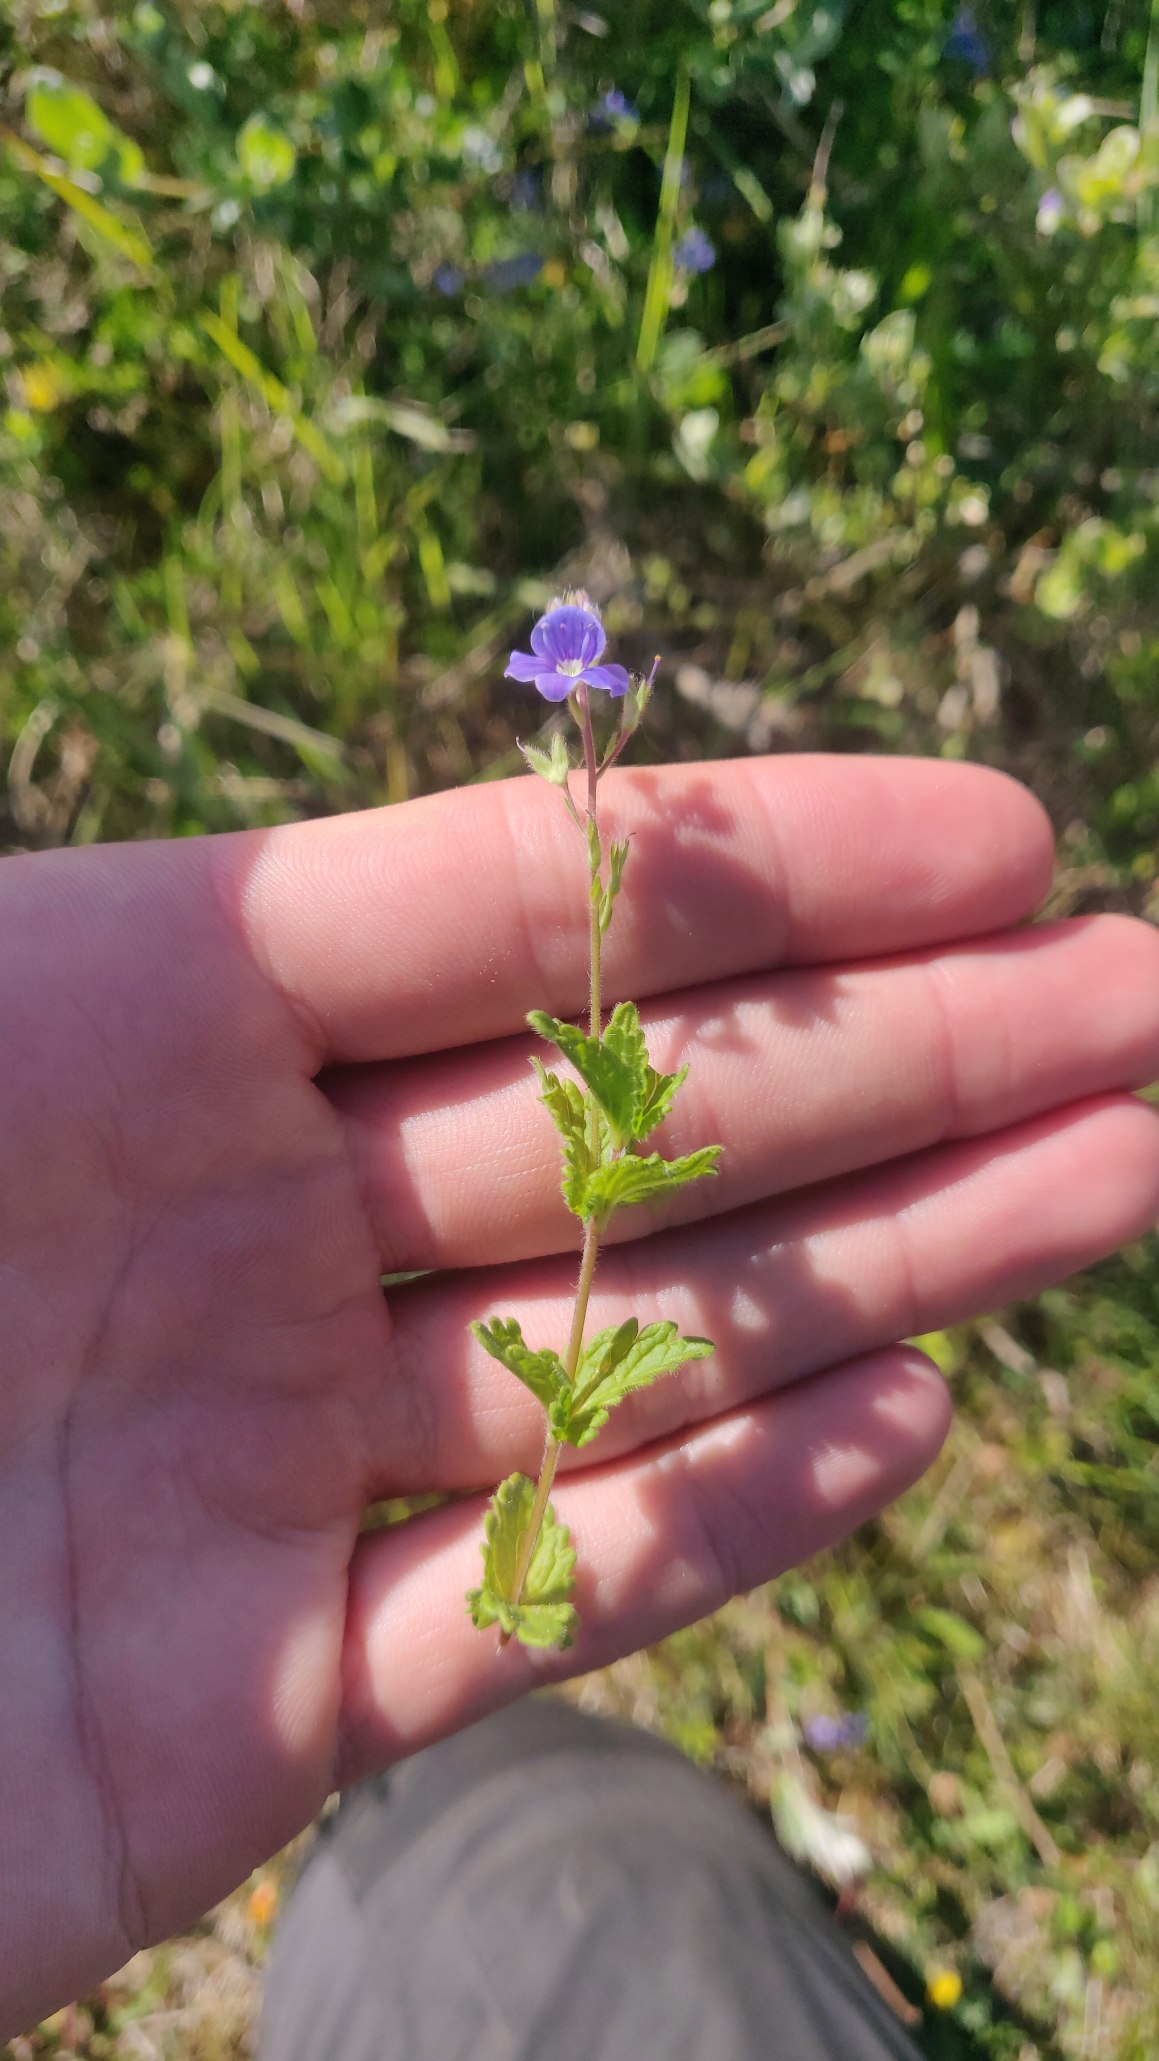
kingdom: Plantae
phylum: Tracheophyta
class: Magnoliopsida
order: Lamiales
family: Plantaginaceae
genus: Veronica
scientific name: Veronica chamaedrys
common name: Tveskægget ærenpris
